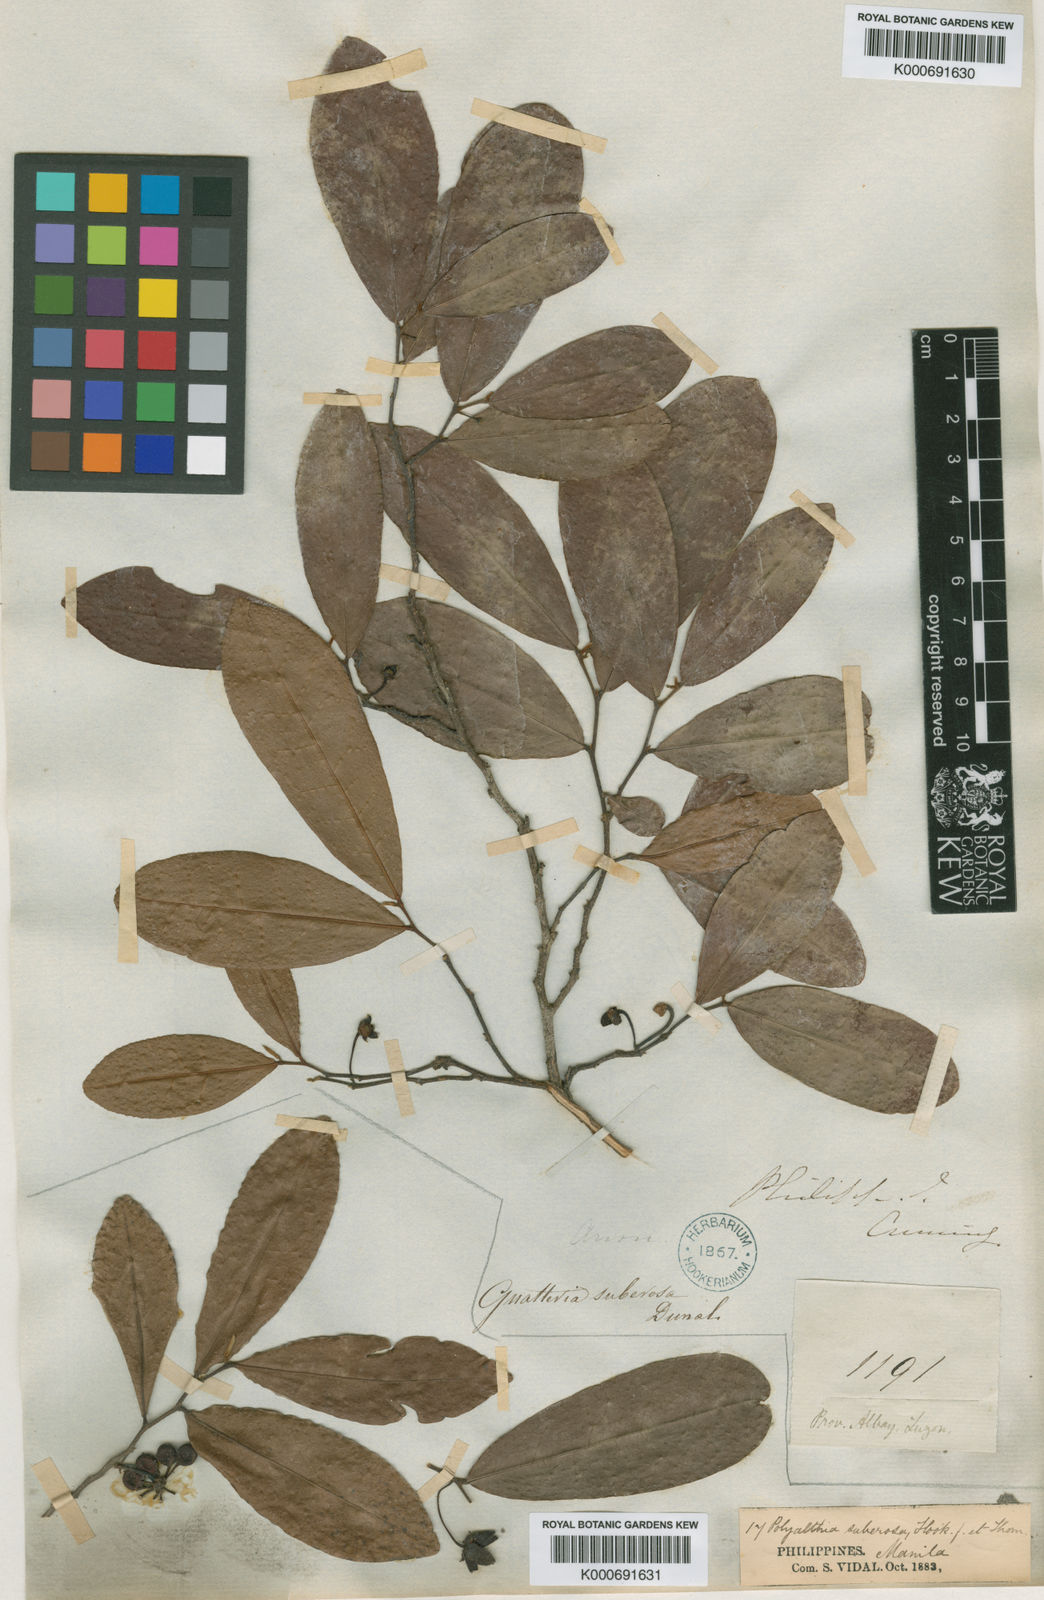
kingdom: Plantae
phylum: Tracheophyta
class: Magnoliopsida
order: Magnoliales
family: Annonaceae
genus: Polyalthia
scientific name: Polyalthia
